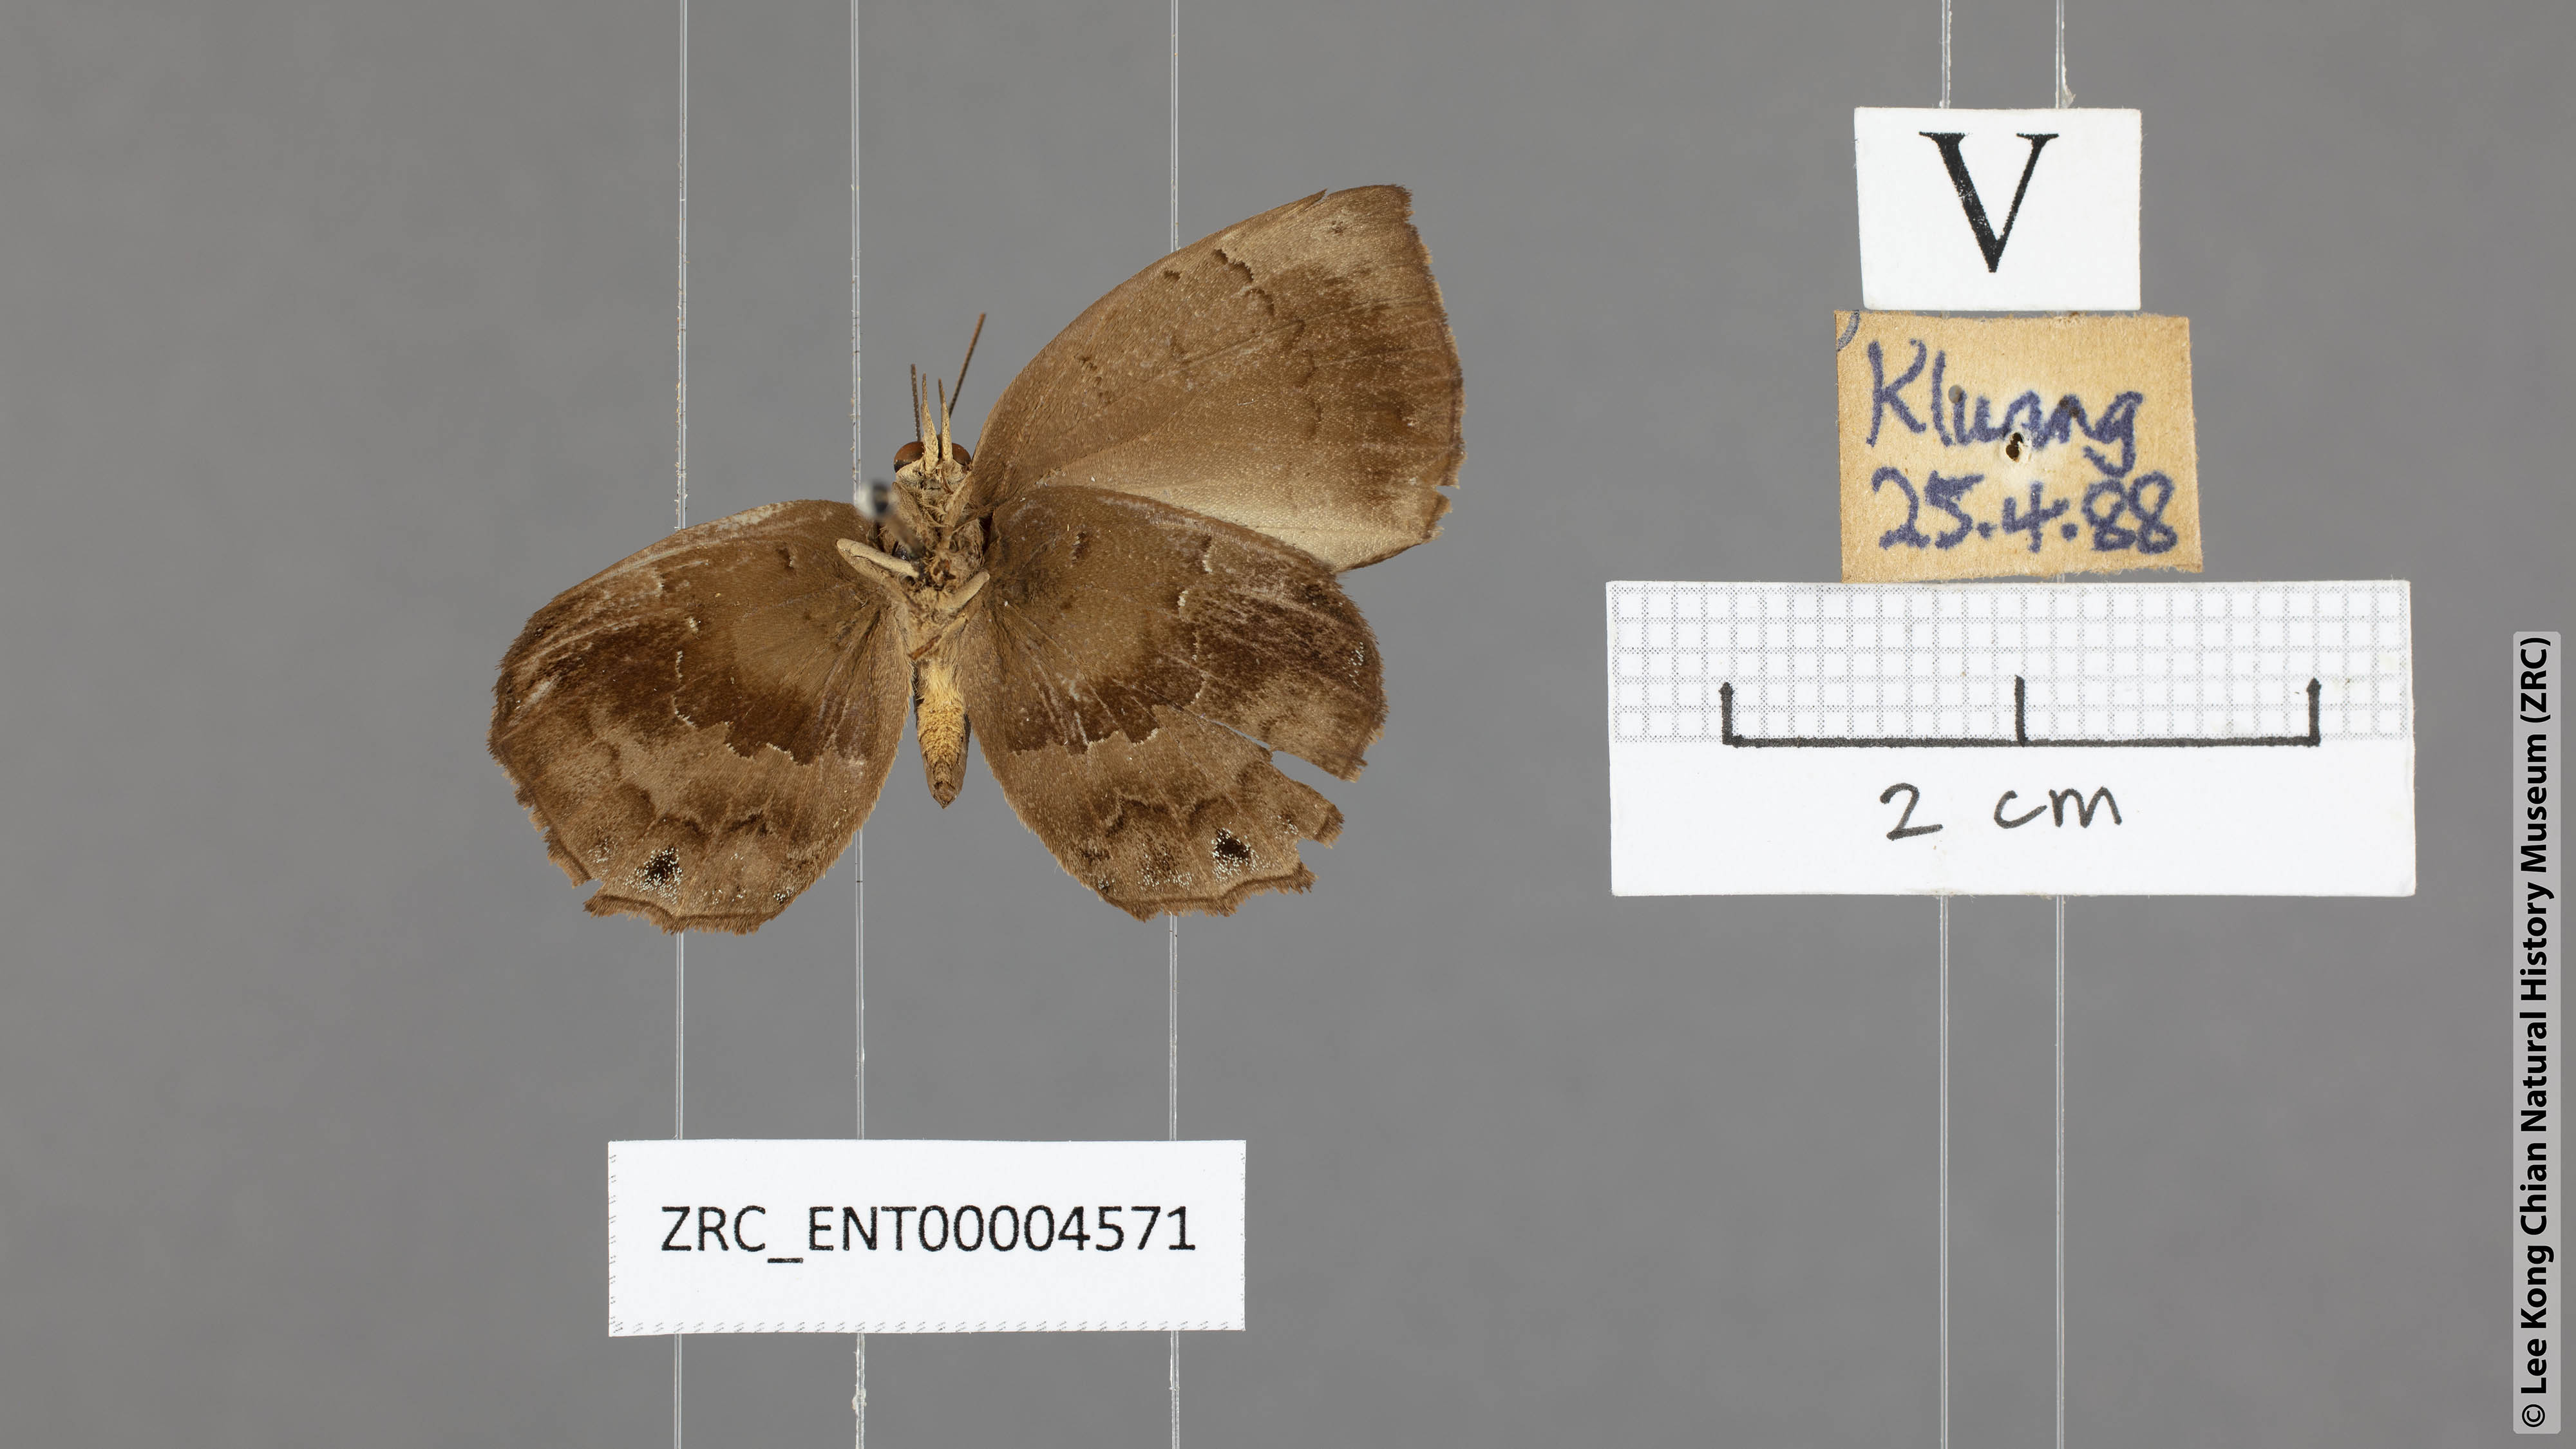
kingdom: Animalia
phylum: Arthropoda
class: Insecta
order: Lepidoptera
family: Lycaenidae
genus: Surendra
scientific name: Surendra florimel
